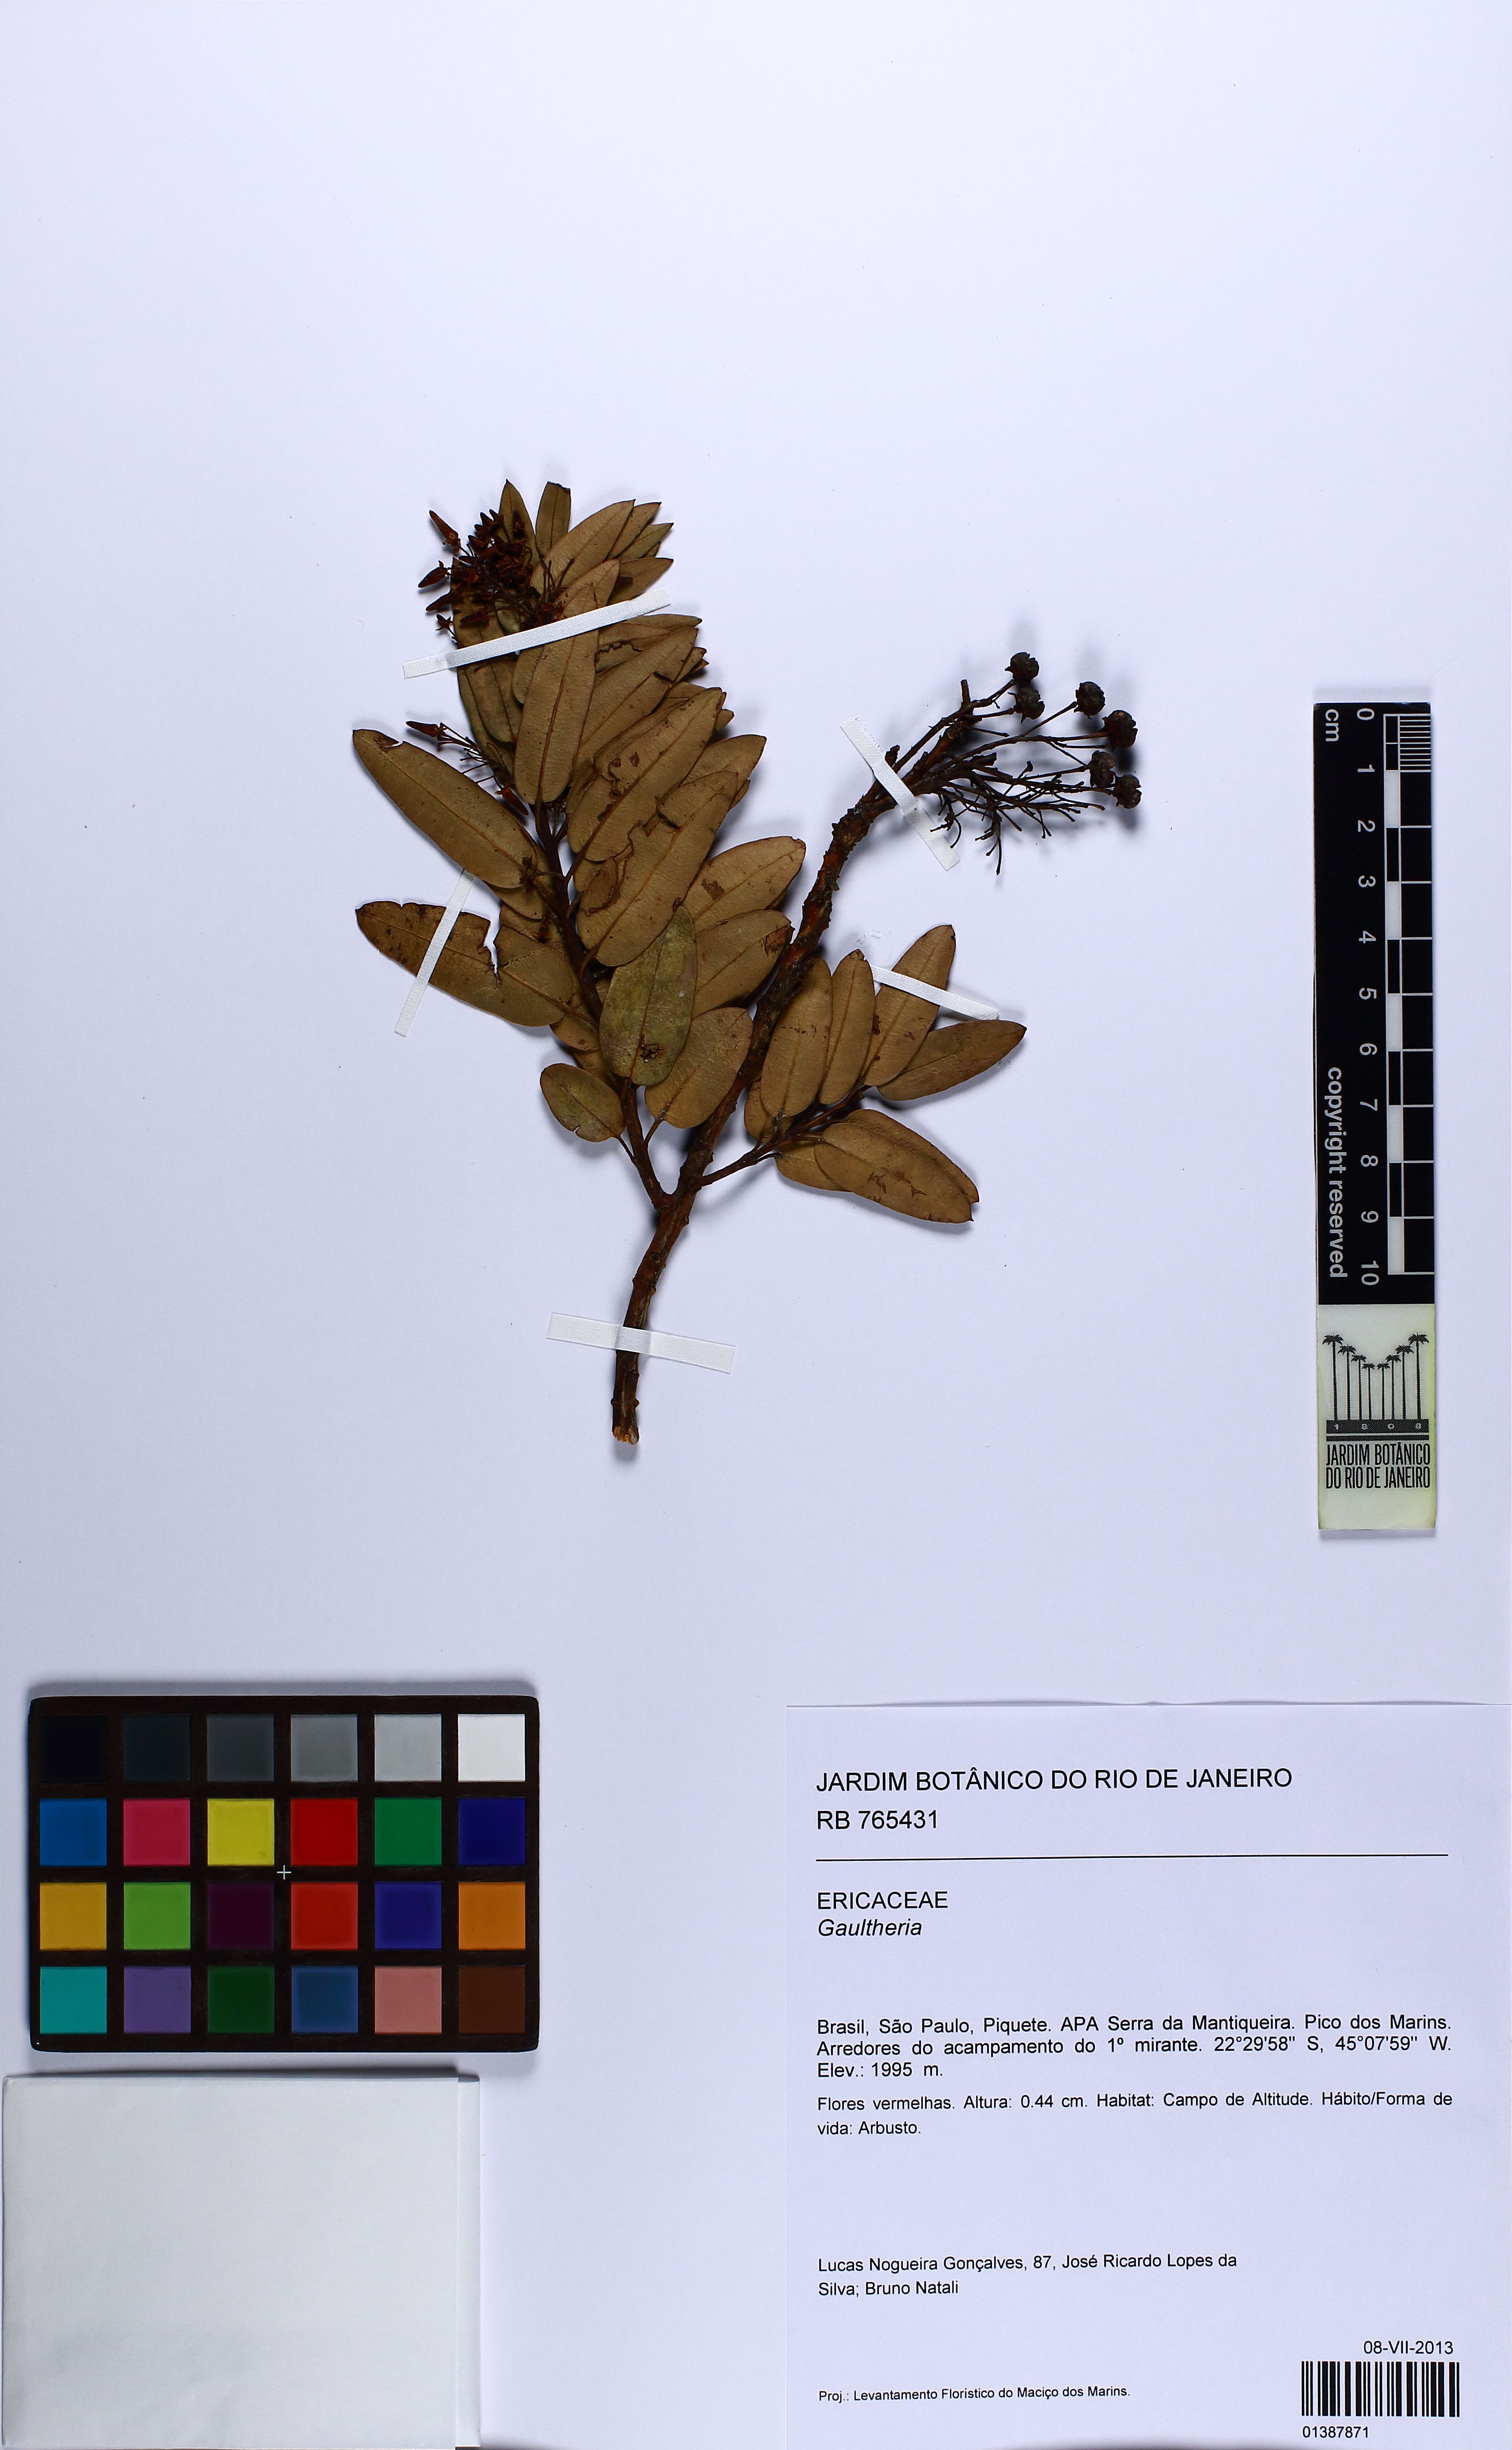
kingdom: Plantae
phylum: Tracheophyta
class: Magnoliopsida
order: Ericales
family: Ericaceae
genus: Gaultheria
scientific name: Gaultheria
